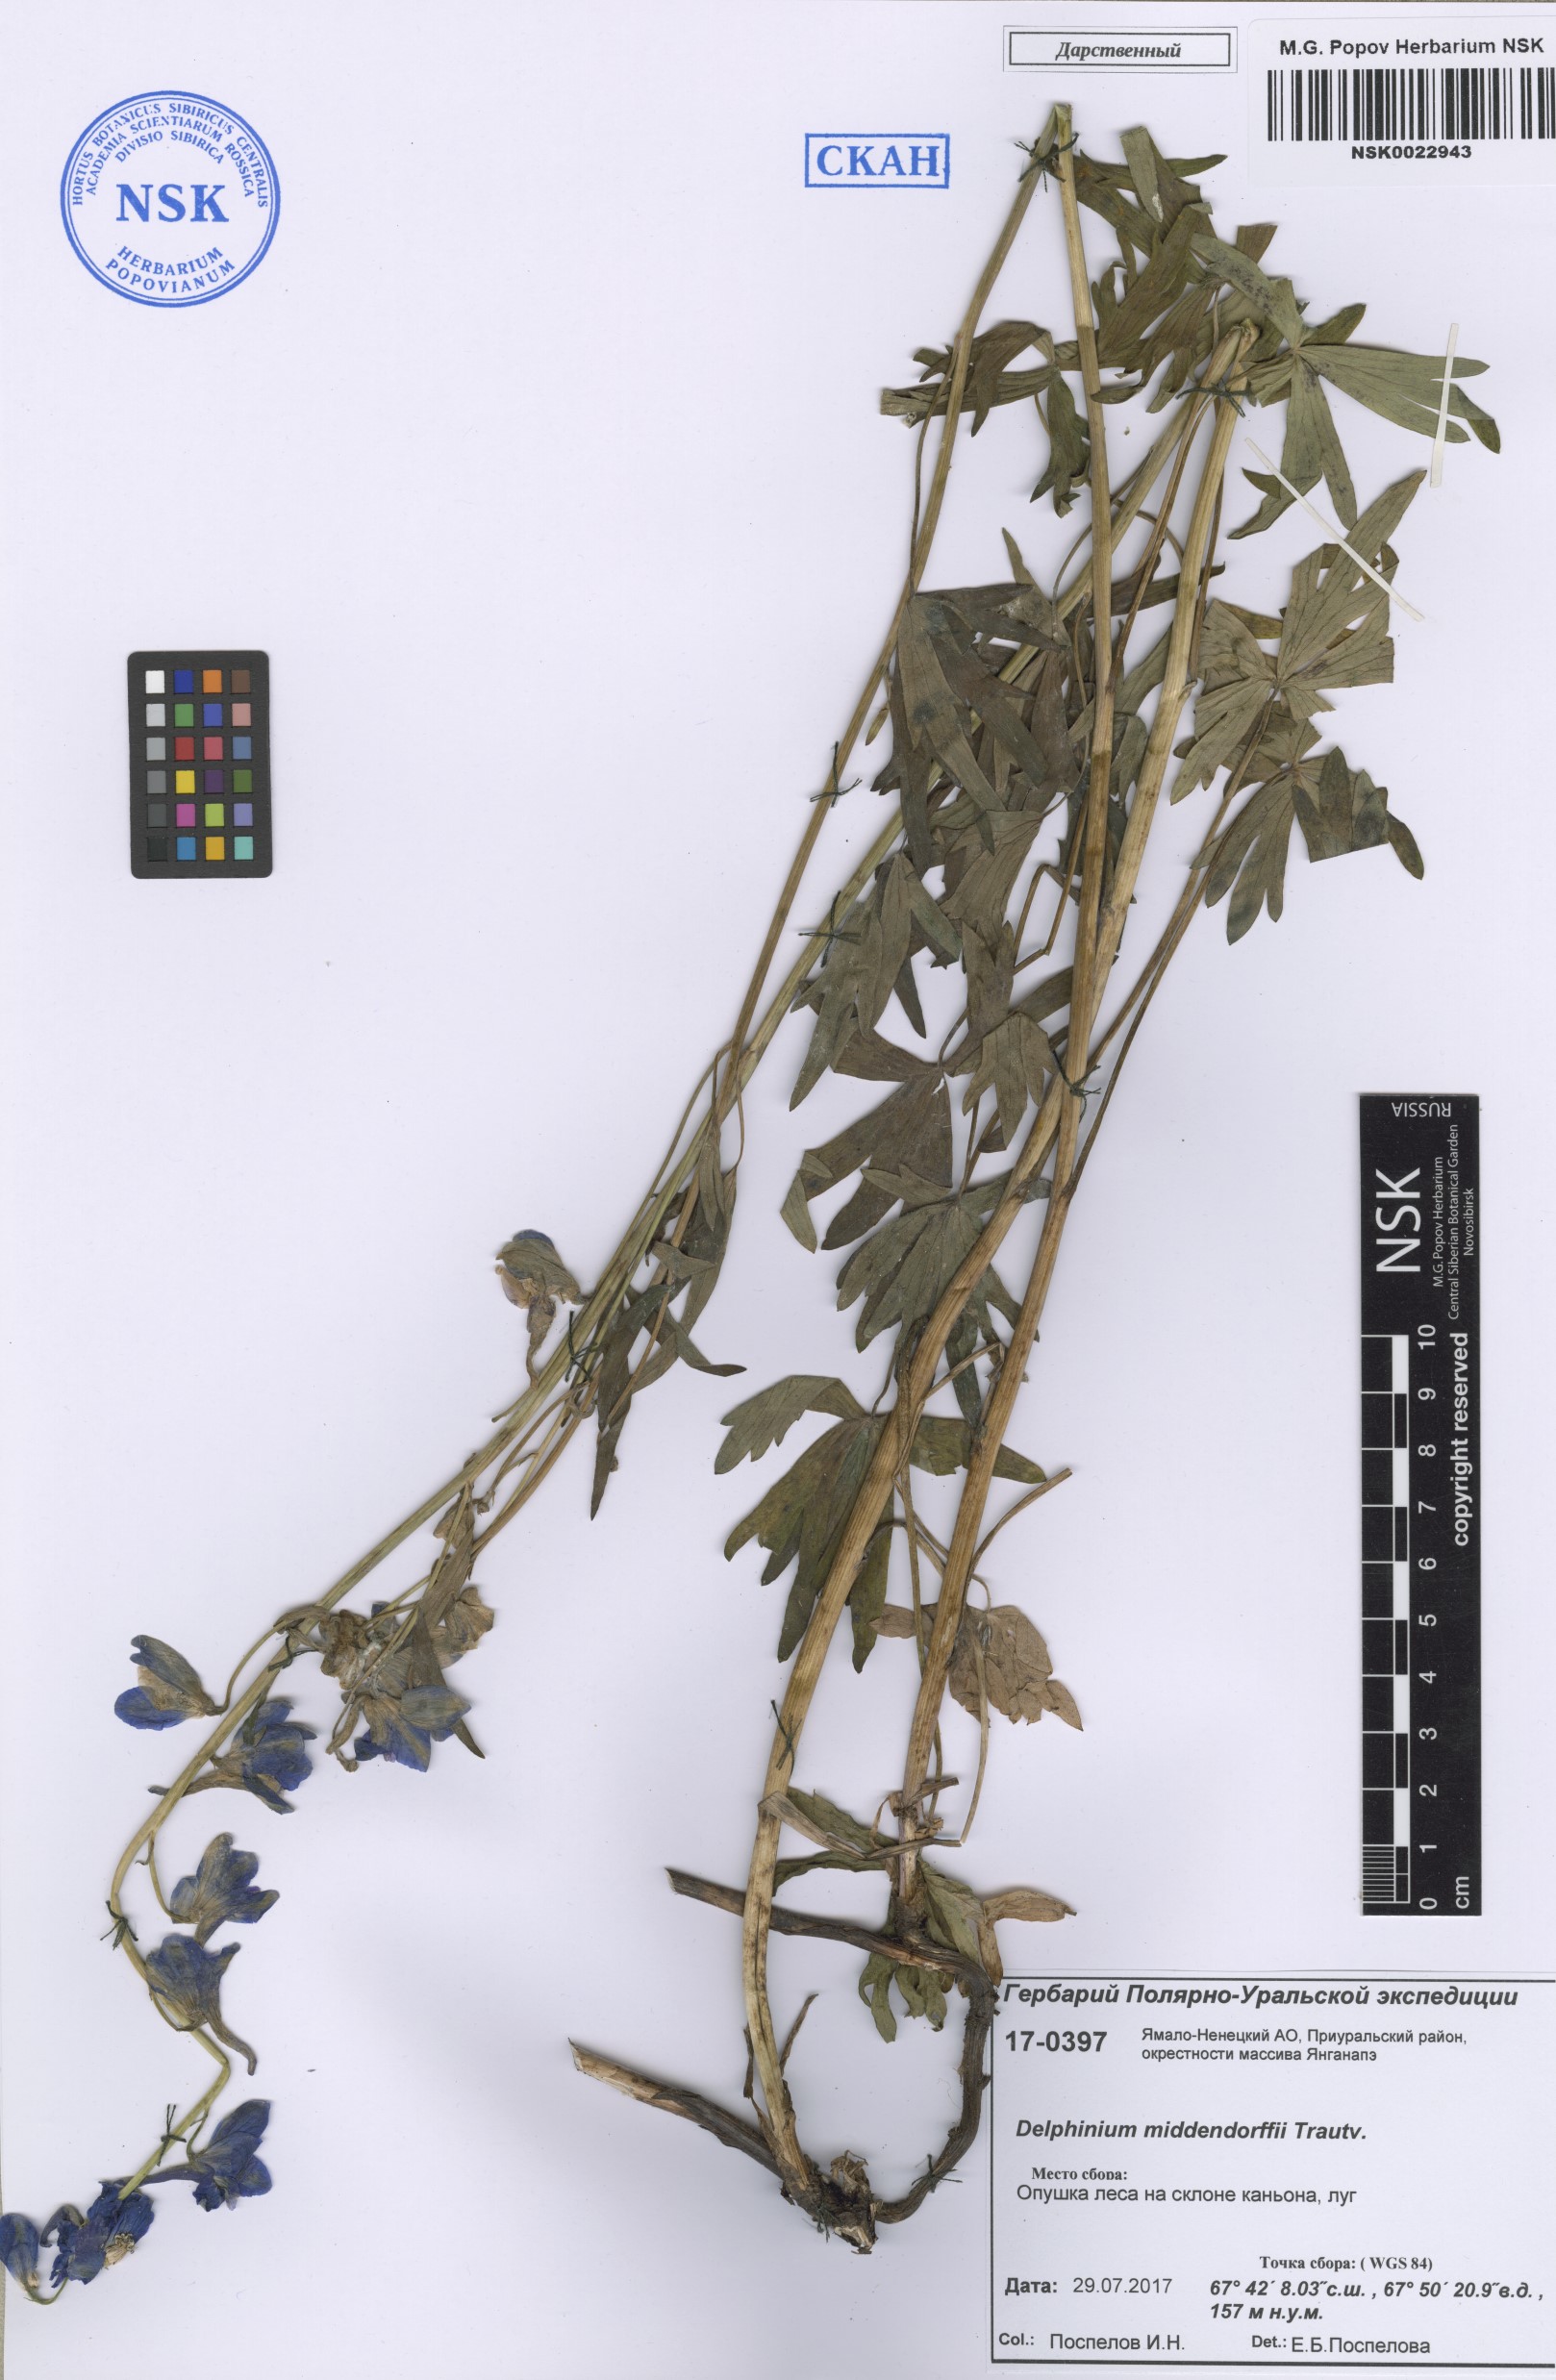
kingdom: Plantae
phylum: Tracheophyta
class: Magnoliopsida
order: Ranunculales
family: Ranunculaceae
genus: Delphinium
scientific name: Delphinium cheilanthum
